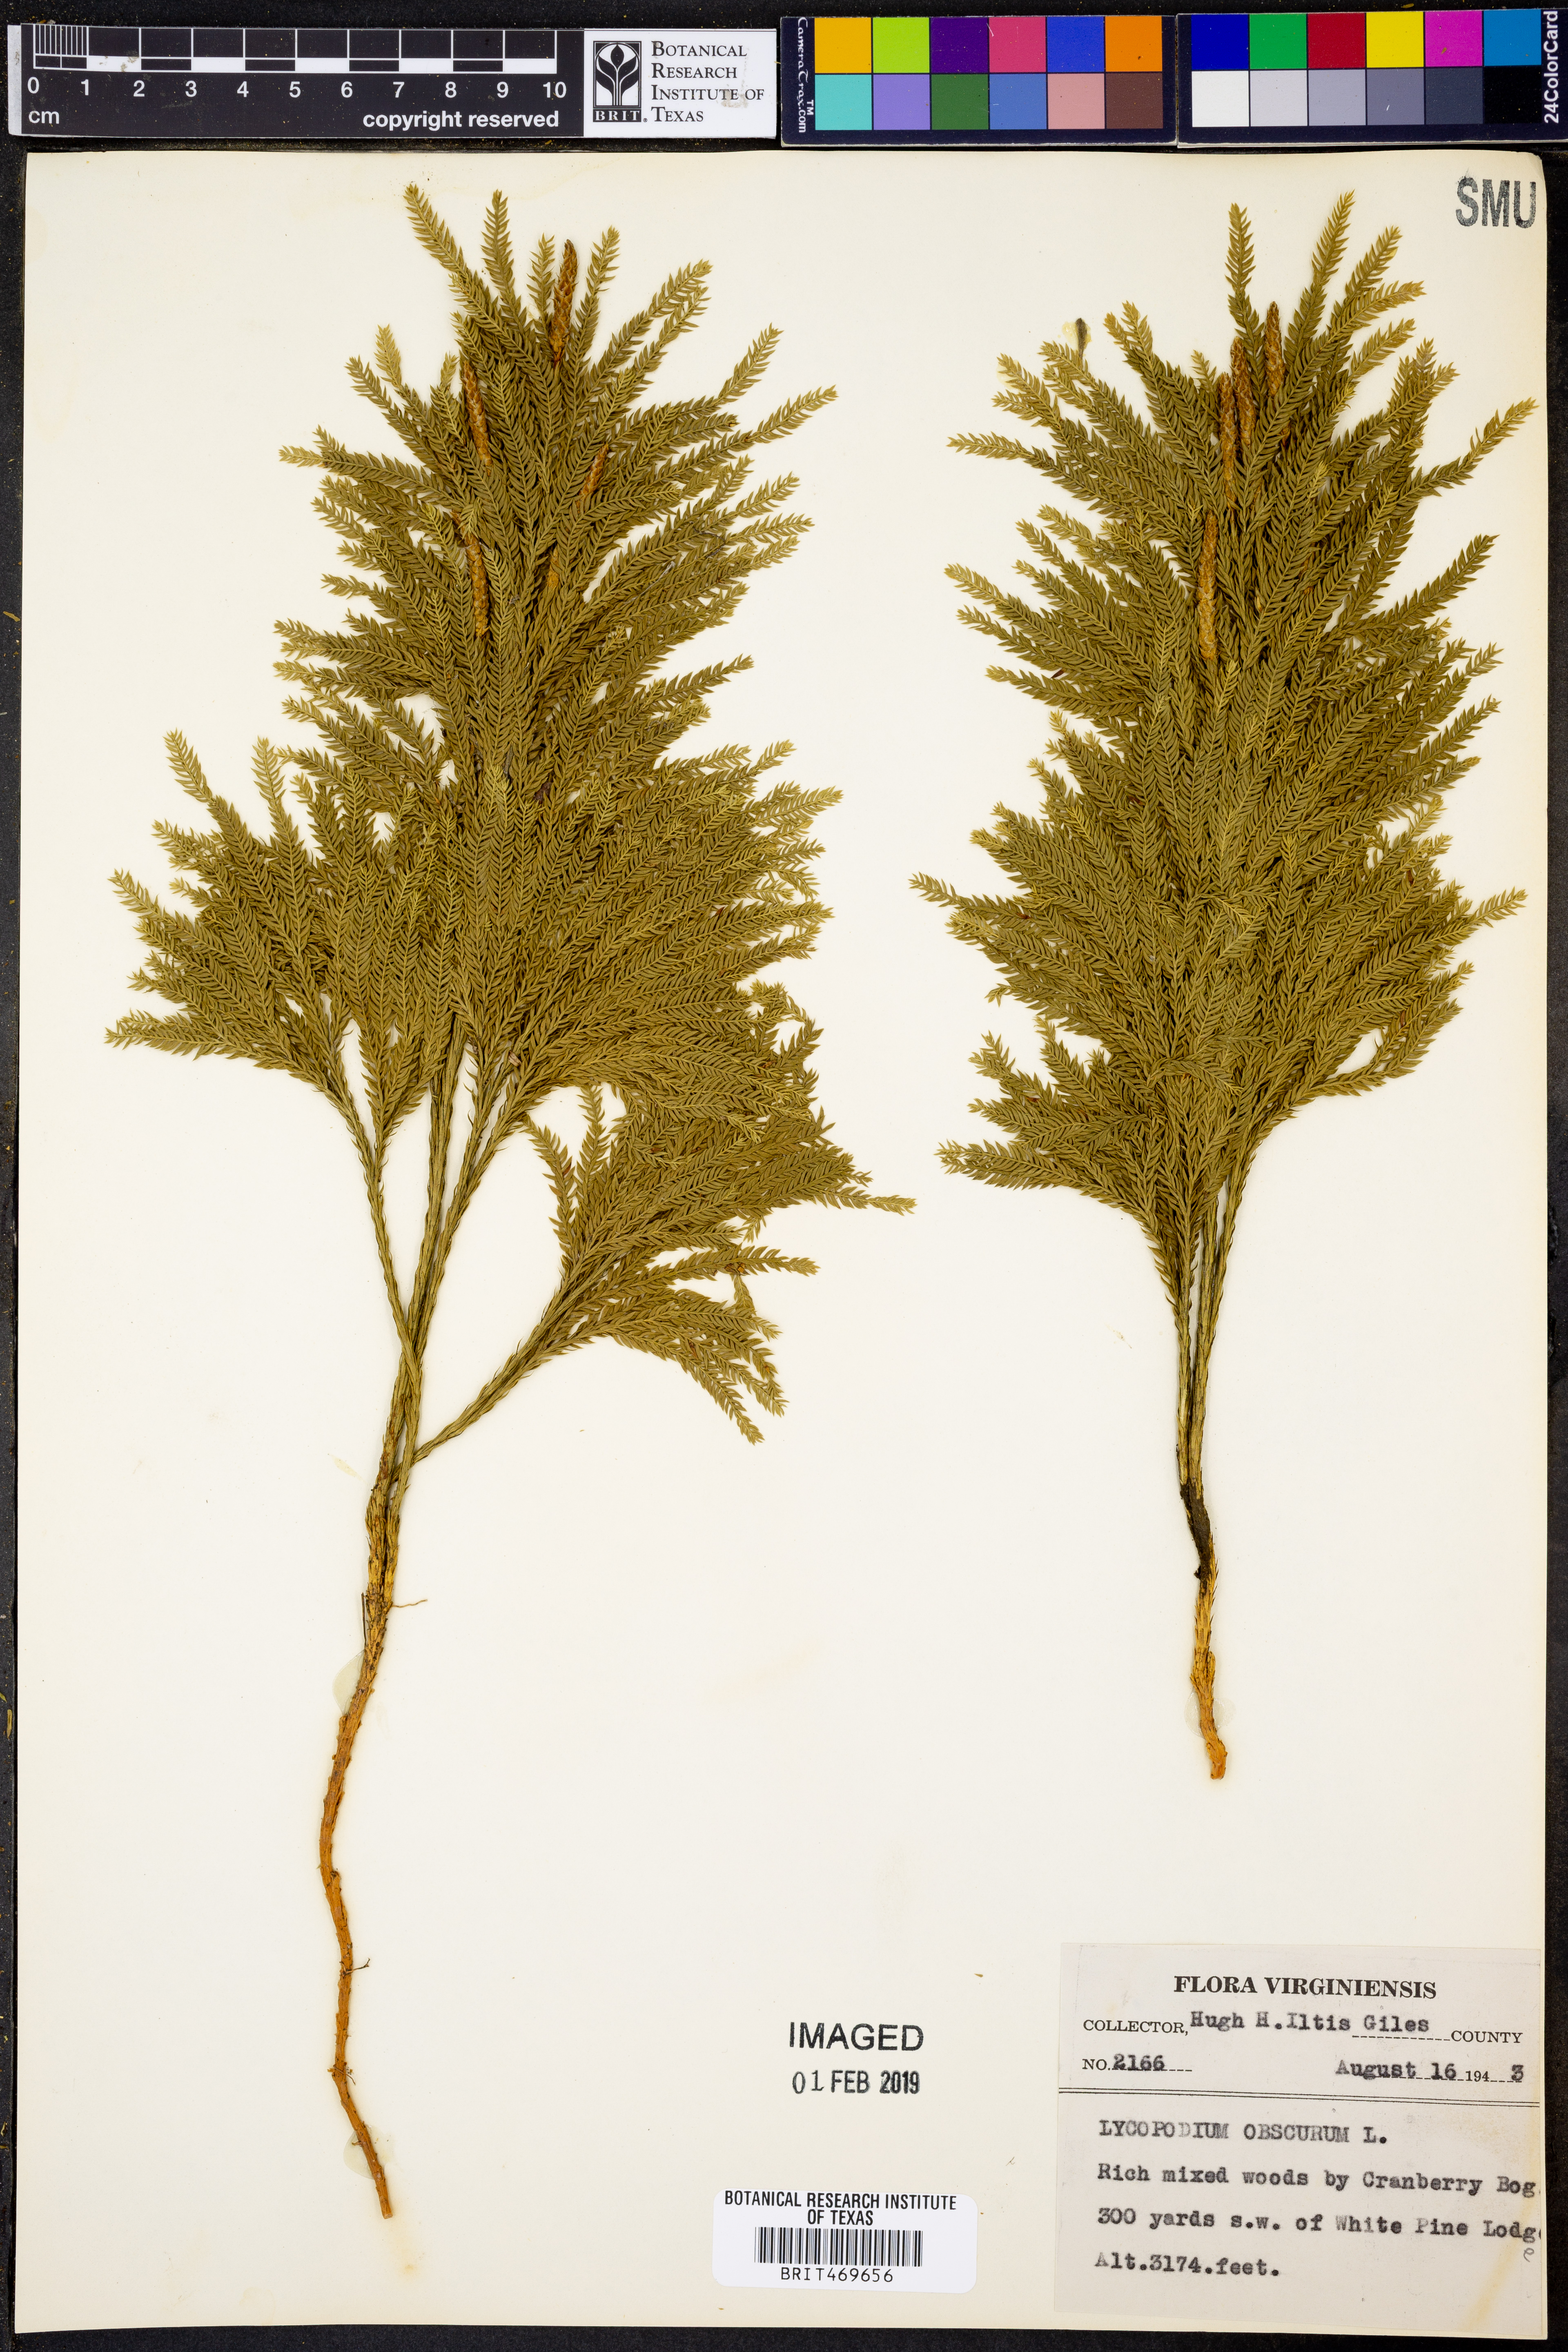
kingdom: Plantae
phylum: Tracheophyta
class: Lycopodiopsida
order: Lycopodiales
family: Lycopodiaceae
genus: Dendrolycopodium
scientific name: Dendrolycopodium obscurum
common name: Common ground-pine
